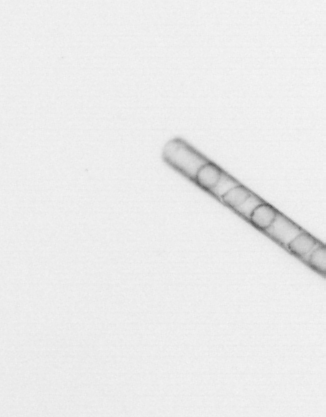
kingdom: Chromista
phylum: Ochrophyta
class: Bacillariophyceae
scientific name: Bacillariophyceae
